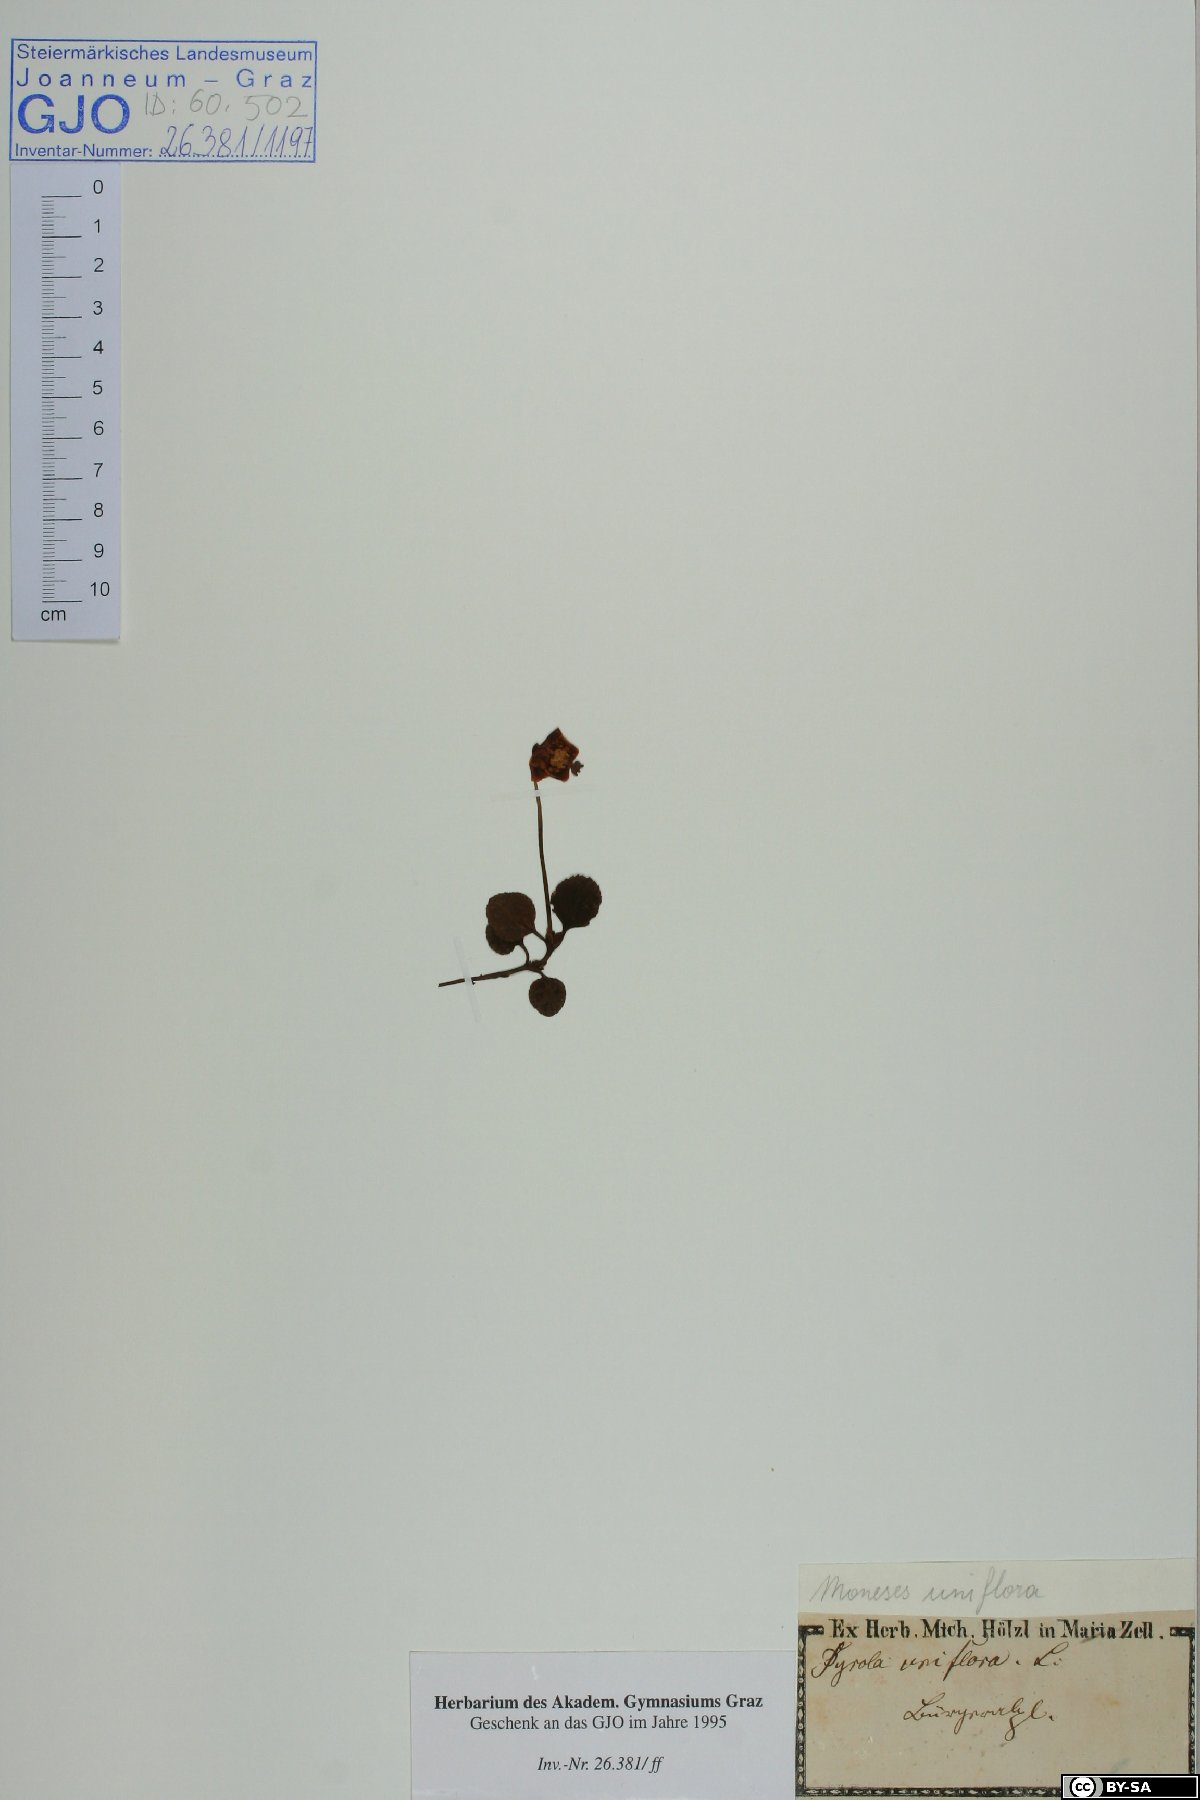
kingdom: Plantae
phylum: Tracheophyta
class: Magnoliopsida
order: Ericales
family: Ericaceae
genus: Moneses
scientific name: Moneses uniflora
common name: One-flowered wintergreen
